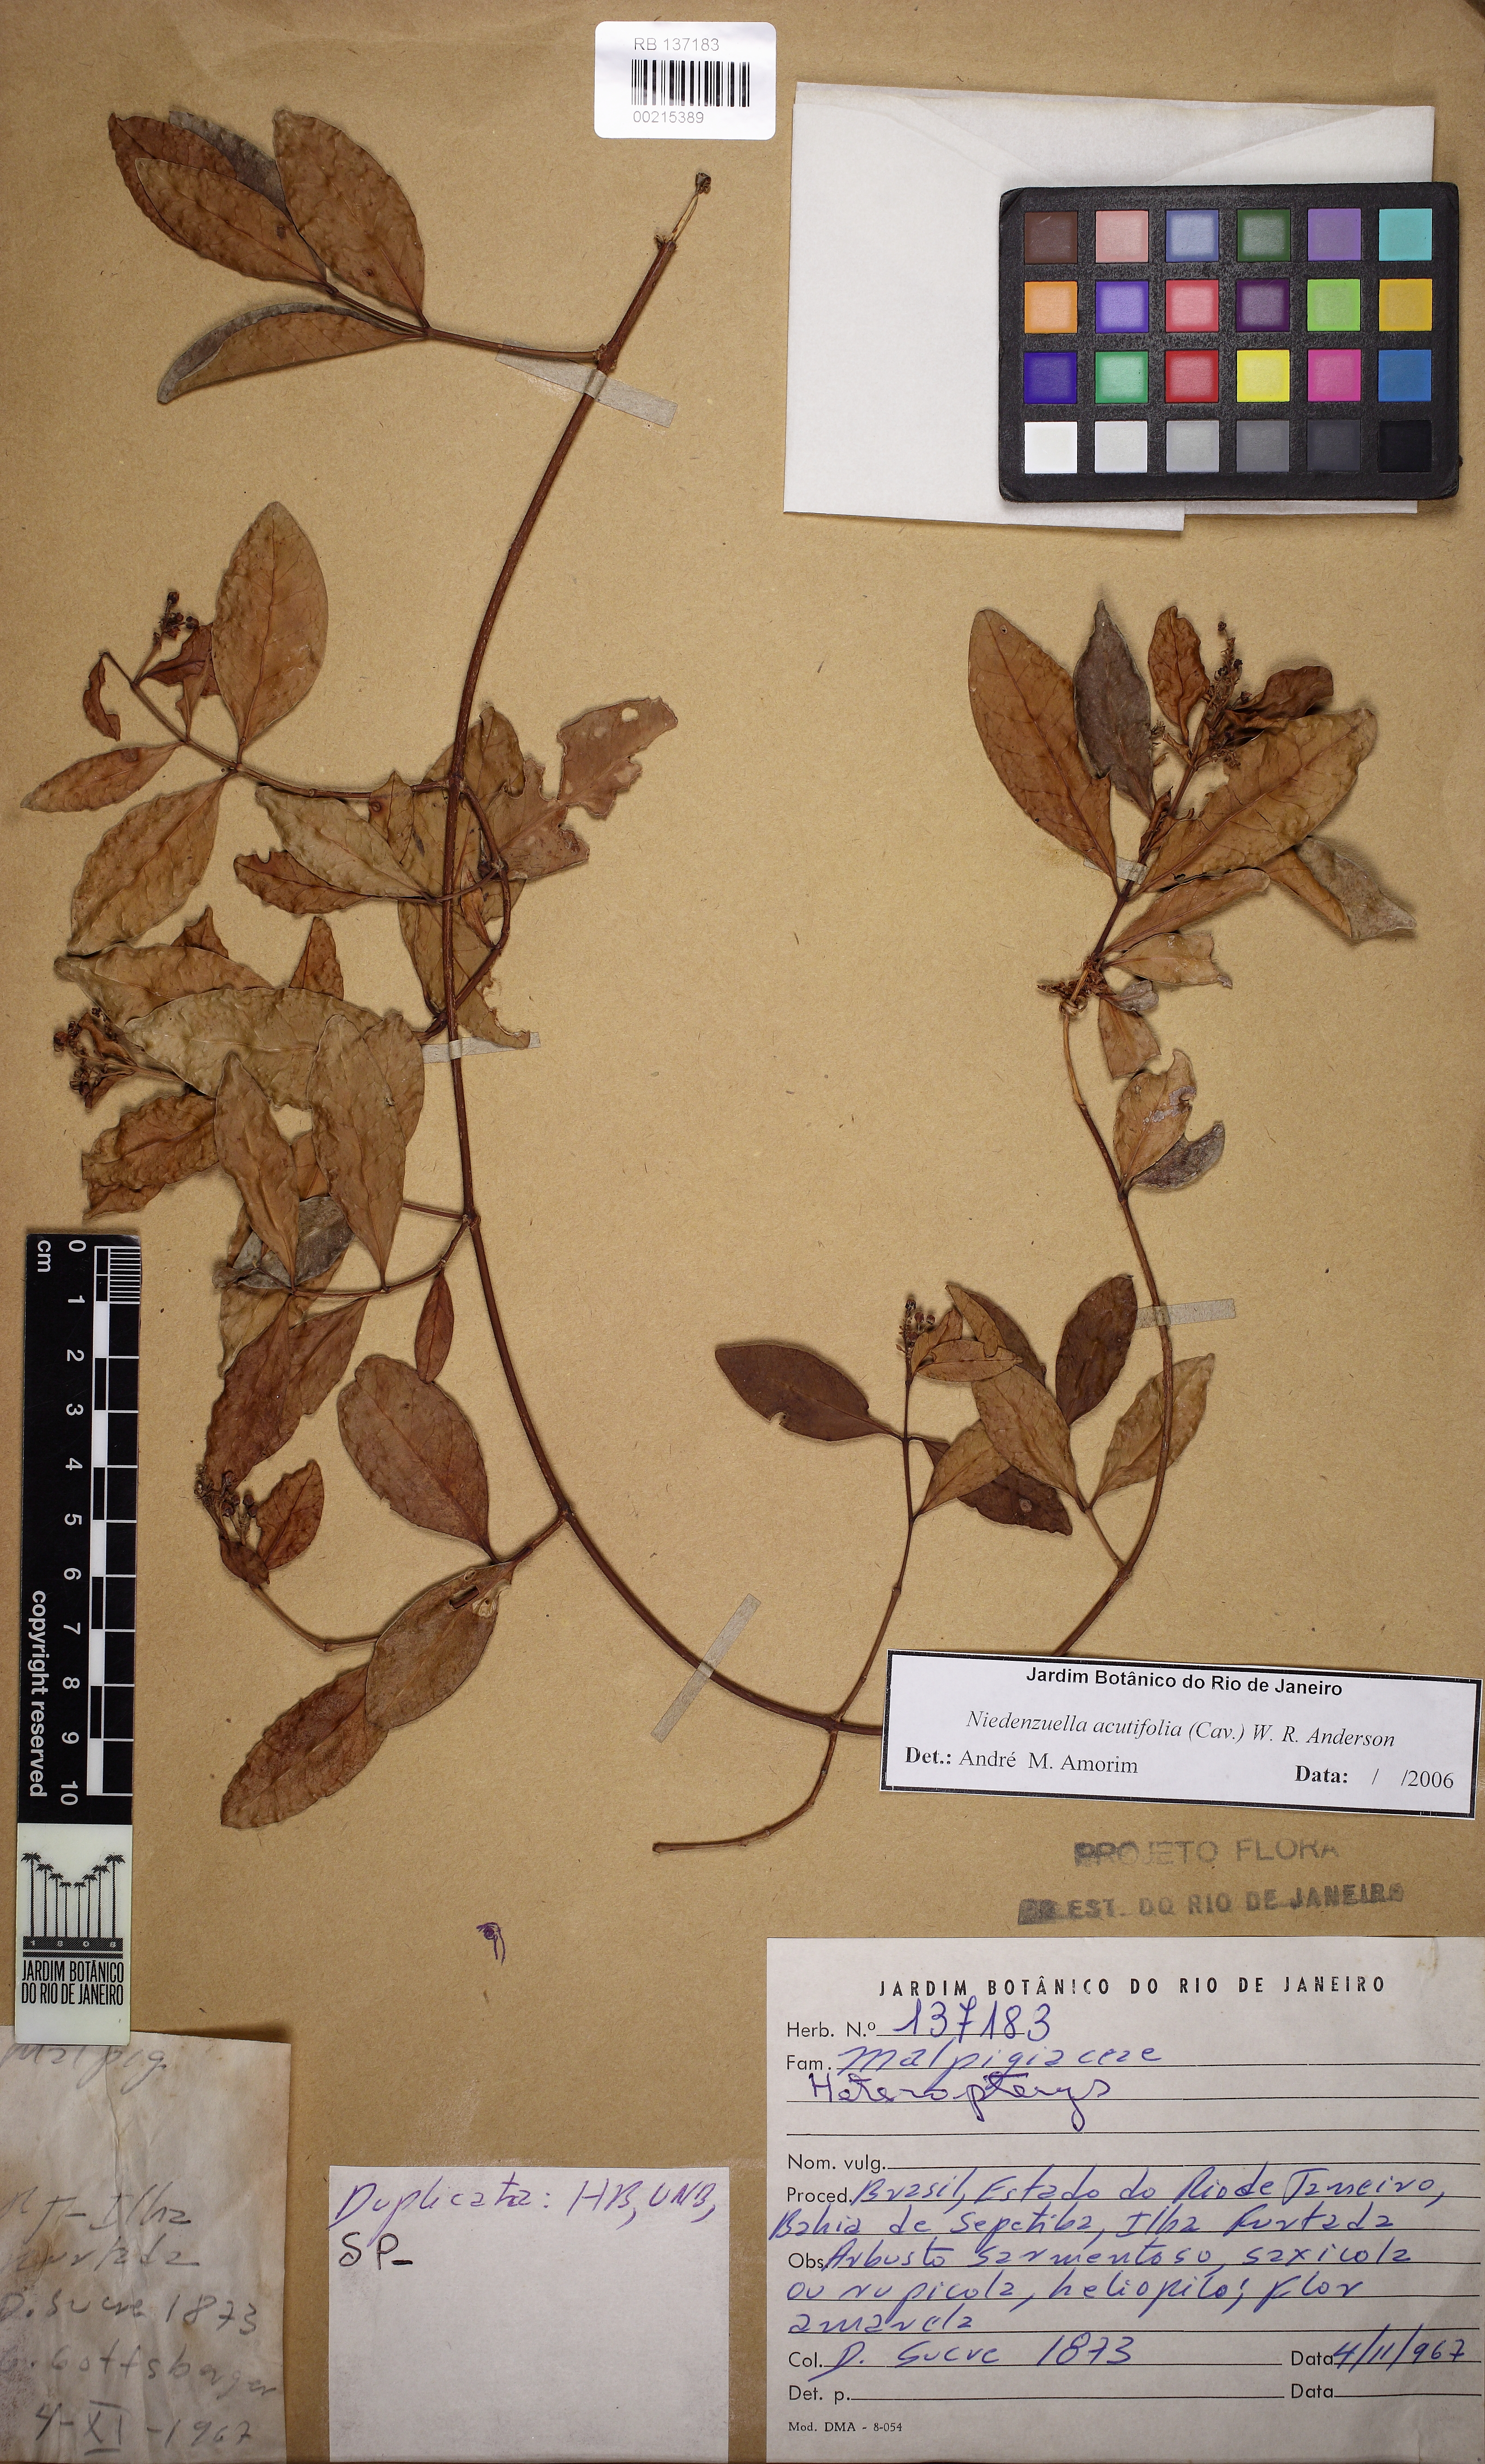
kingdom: Plantae
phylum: Tracheophyta
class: Magnoliopsida
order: Malpighiales
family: Malpighiaceae
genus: Niedenzuella
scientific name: Niedenzuella acutifolia
